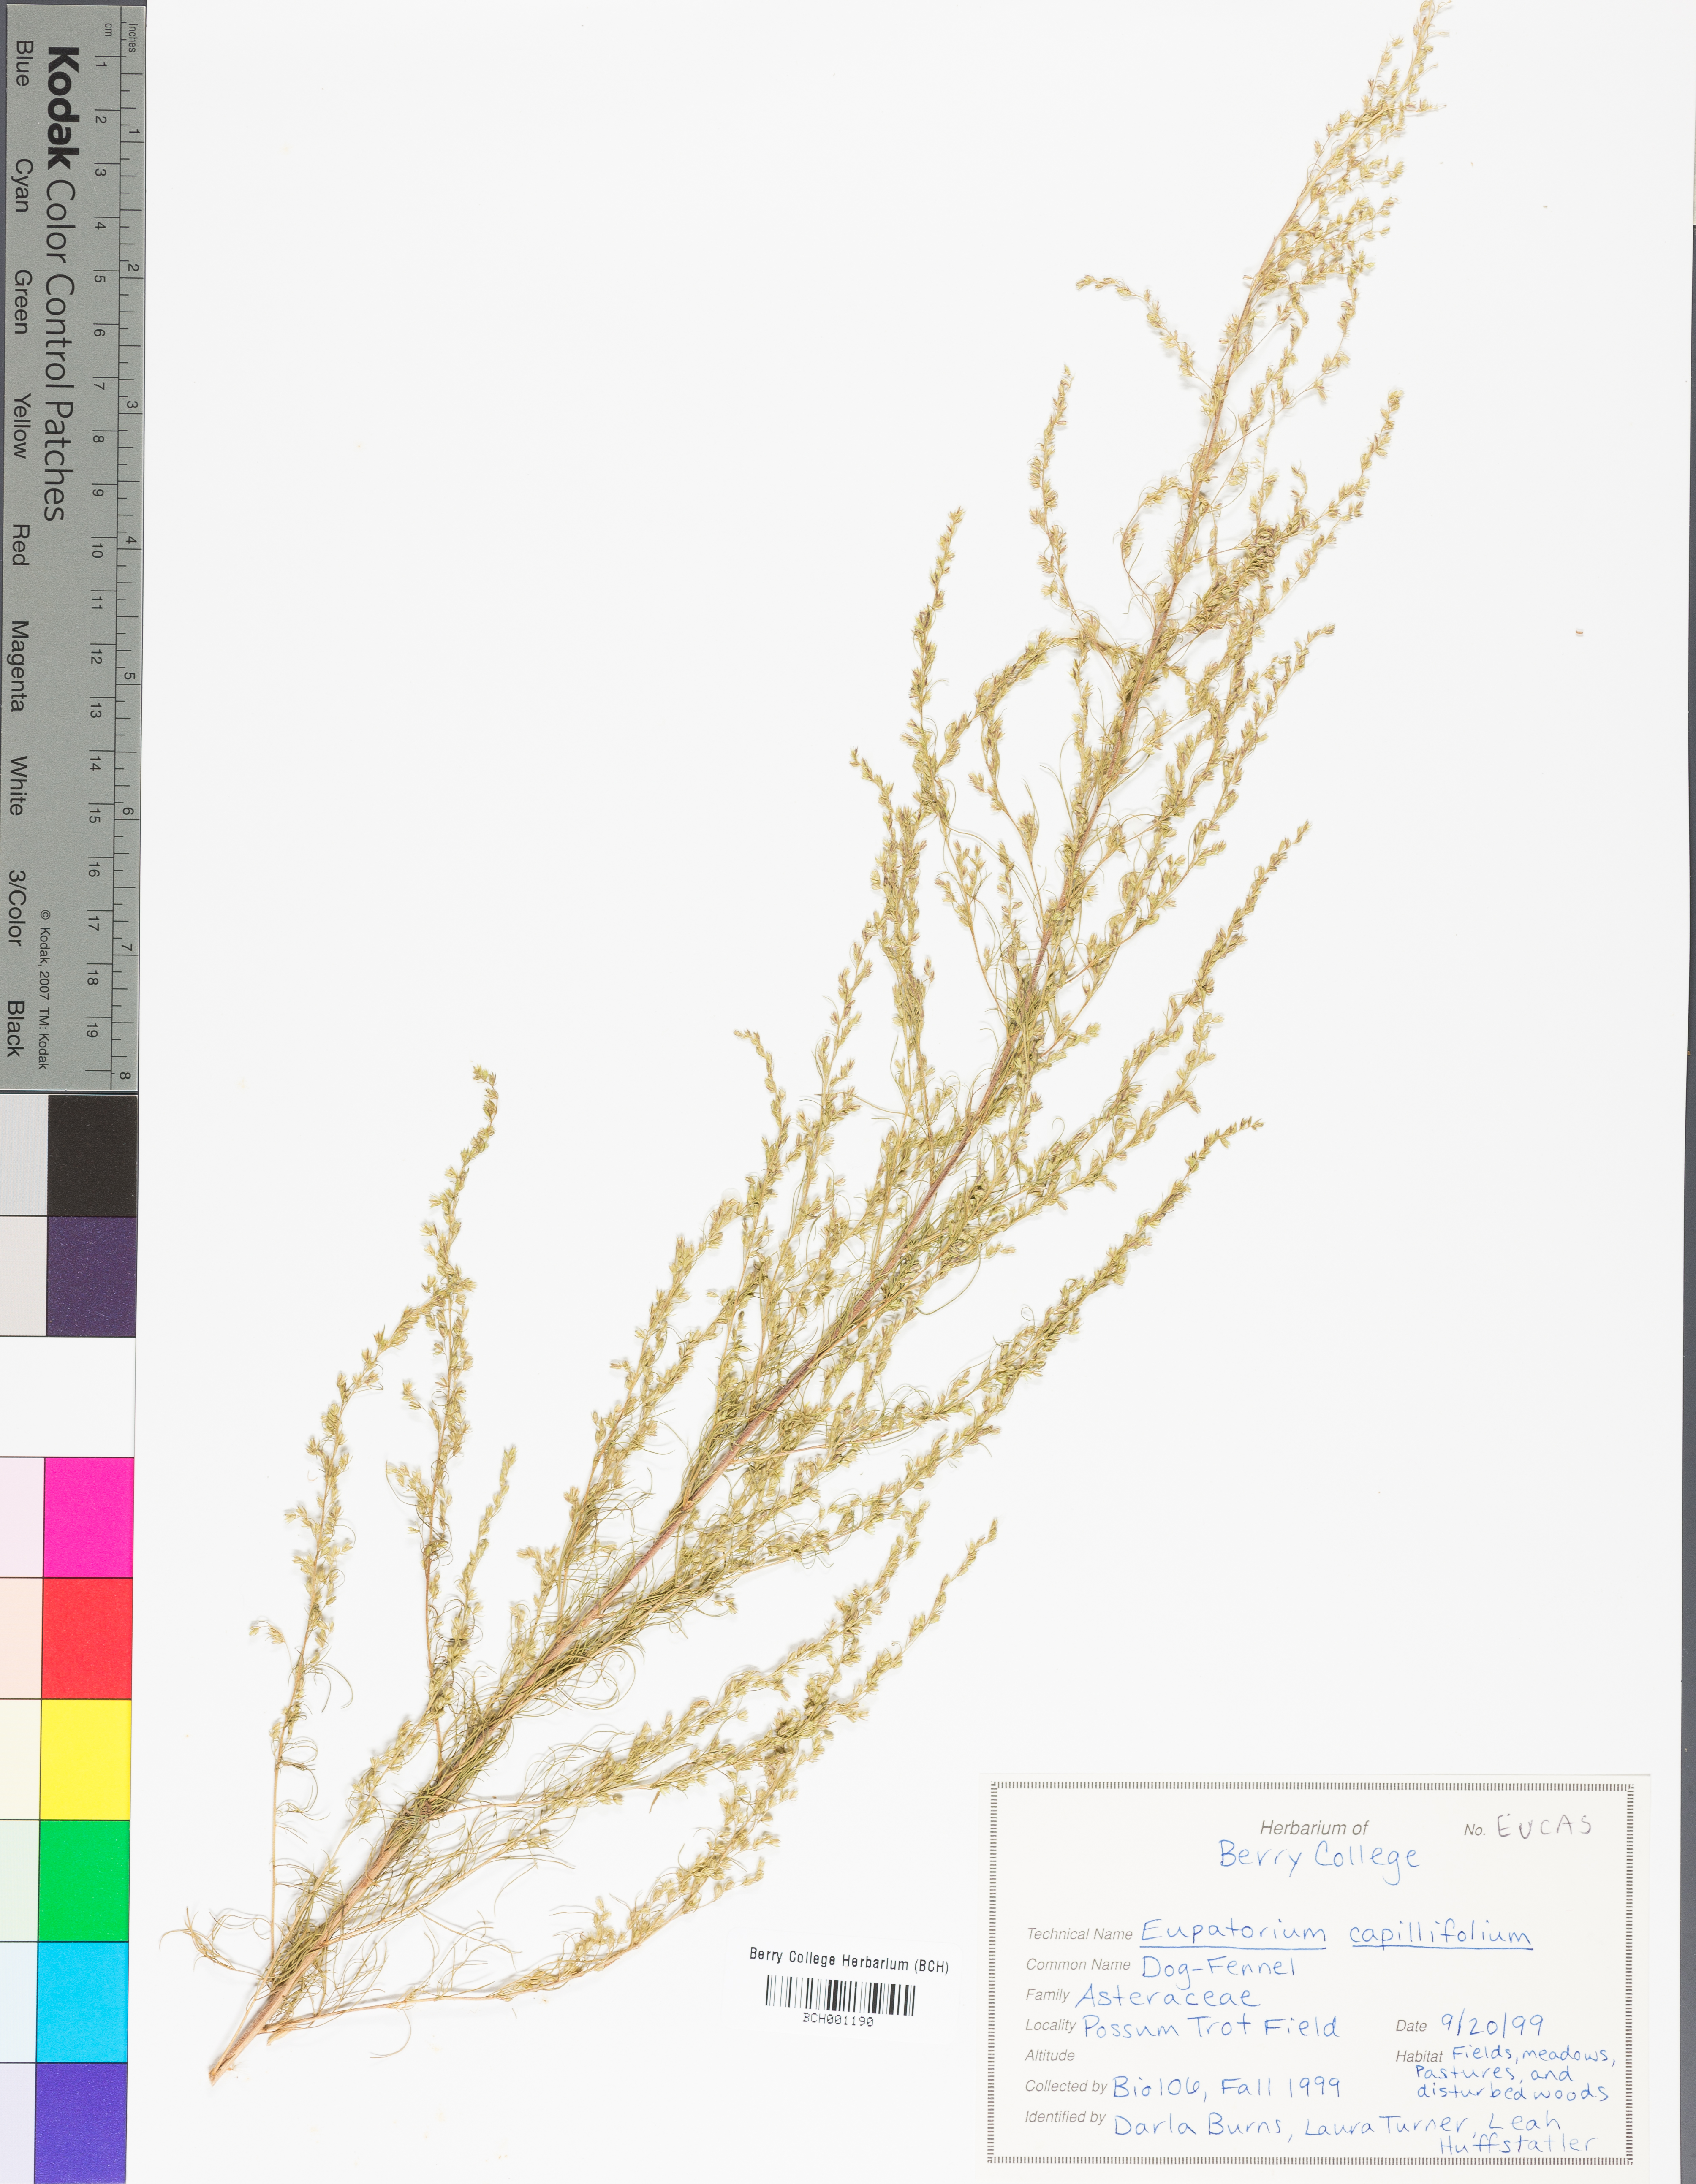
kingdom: Plantae
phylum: Tracheophyta
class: Magnoliopsida
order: Asterales
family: Asteraceae
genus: Eupatorium
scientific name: Eupatorium capillifolium
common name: Dog-fennel
